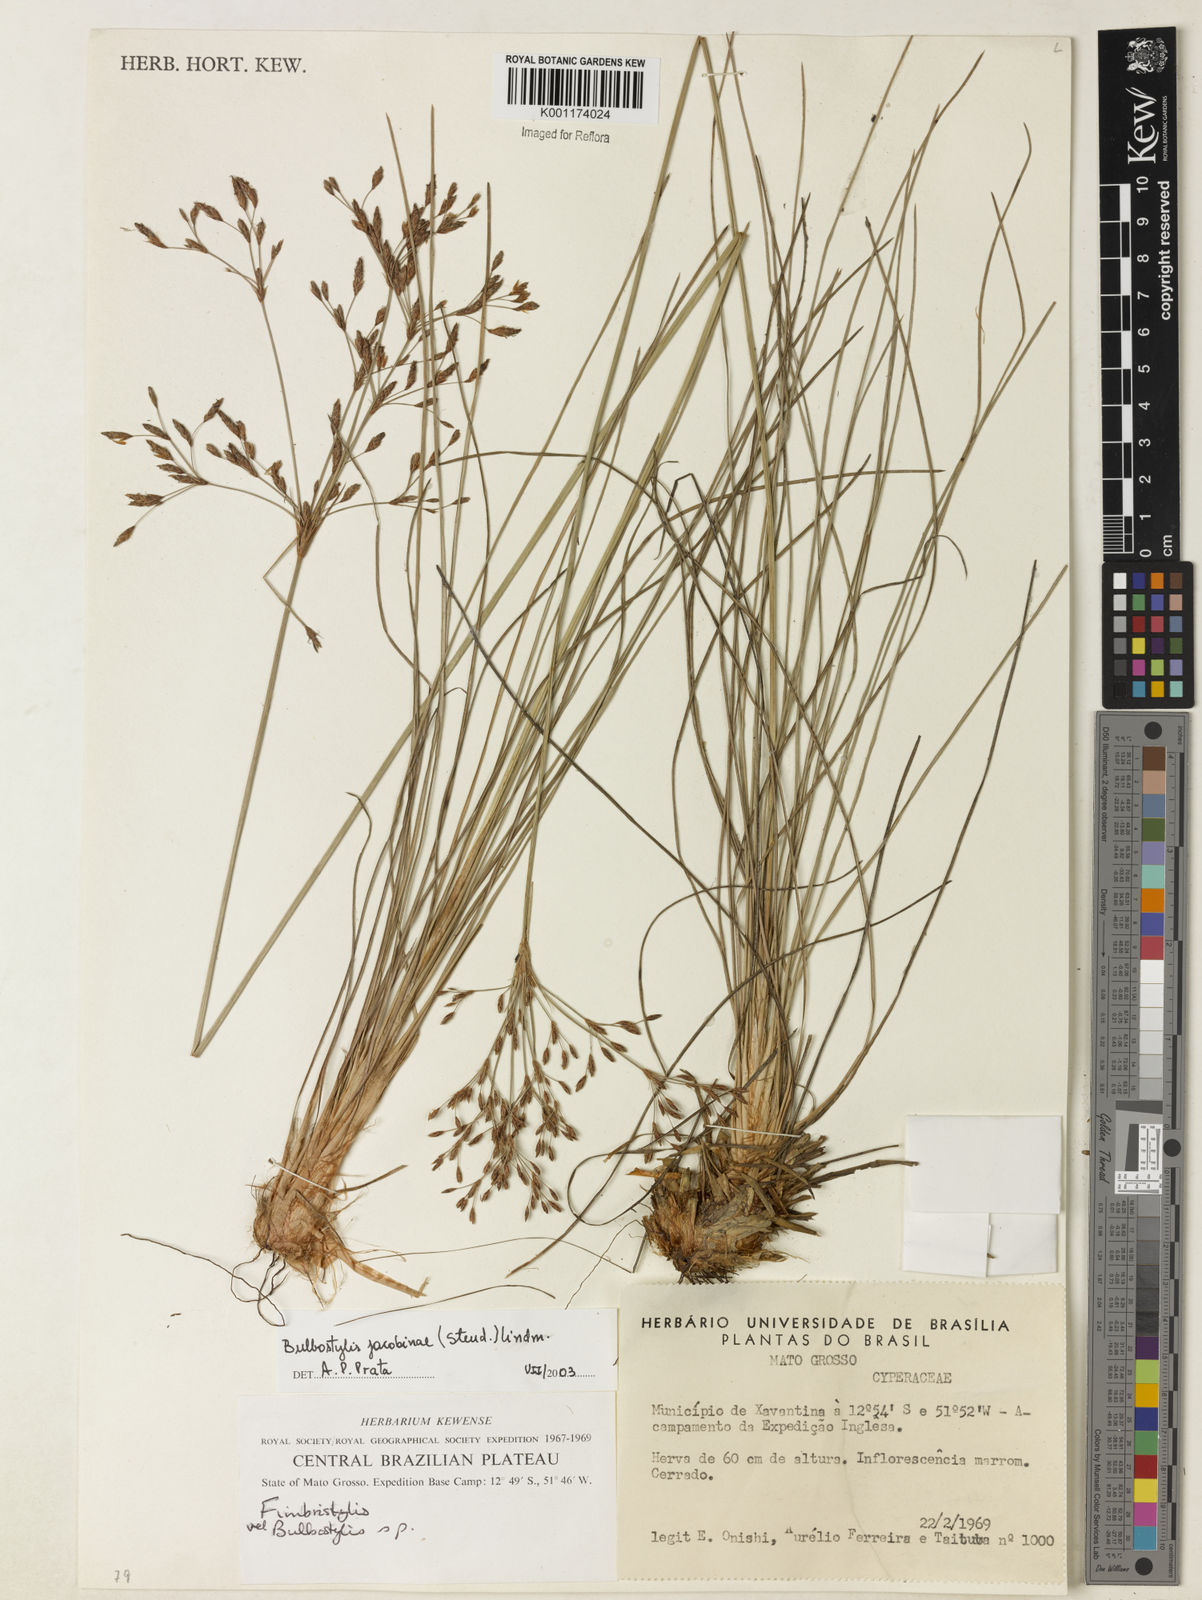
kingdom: Plantae
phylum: Tracheophyta
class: Liliopsida
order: Poales
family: Cyperaceae
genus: Bulbostylis
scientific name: Bulbostylis jacobinae
